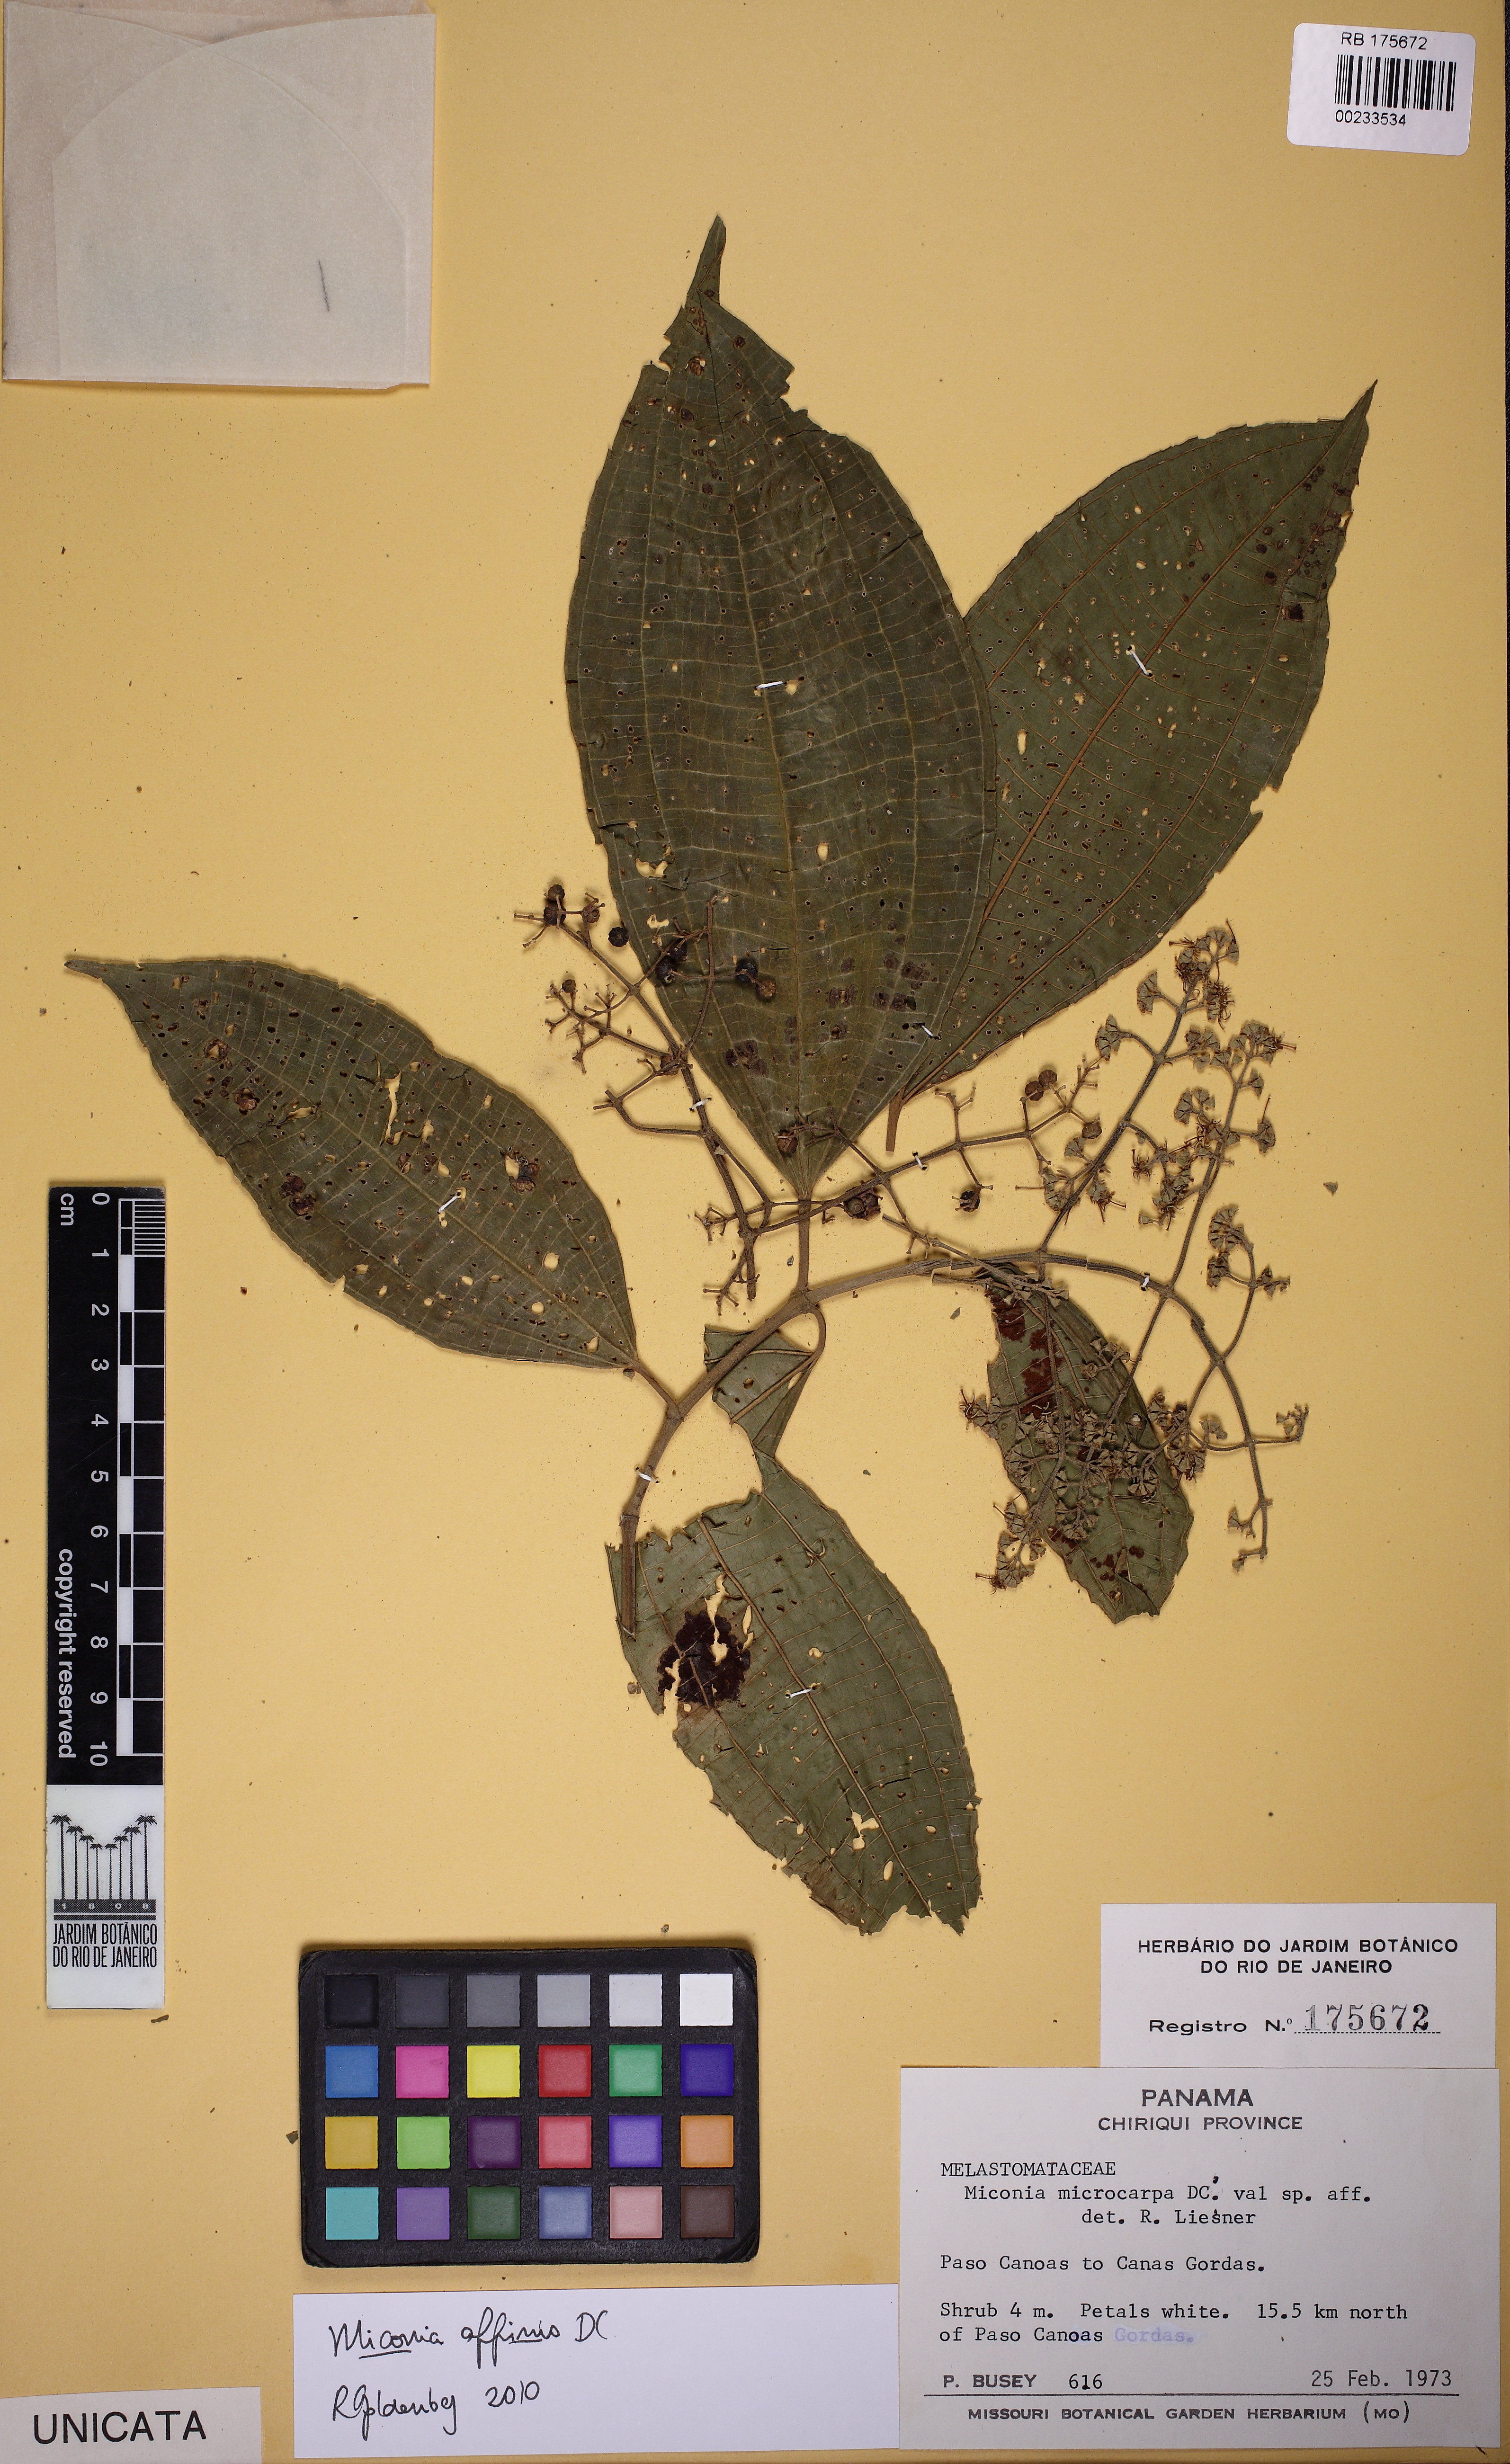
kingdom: Plantae
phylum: Tracheophyta
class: Magnoliopsida
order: Myrtales
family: Melastomataceae
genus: Miconia
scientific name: Miconia affinis
